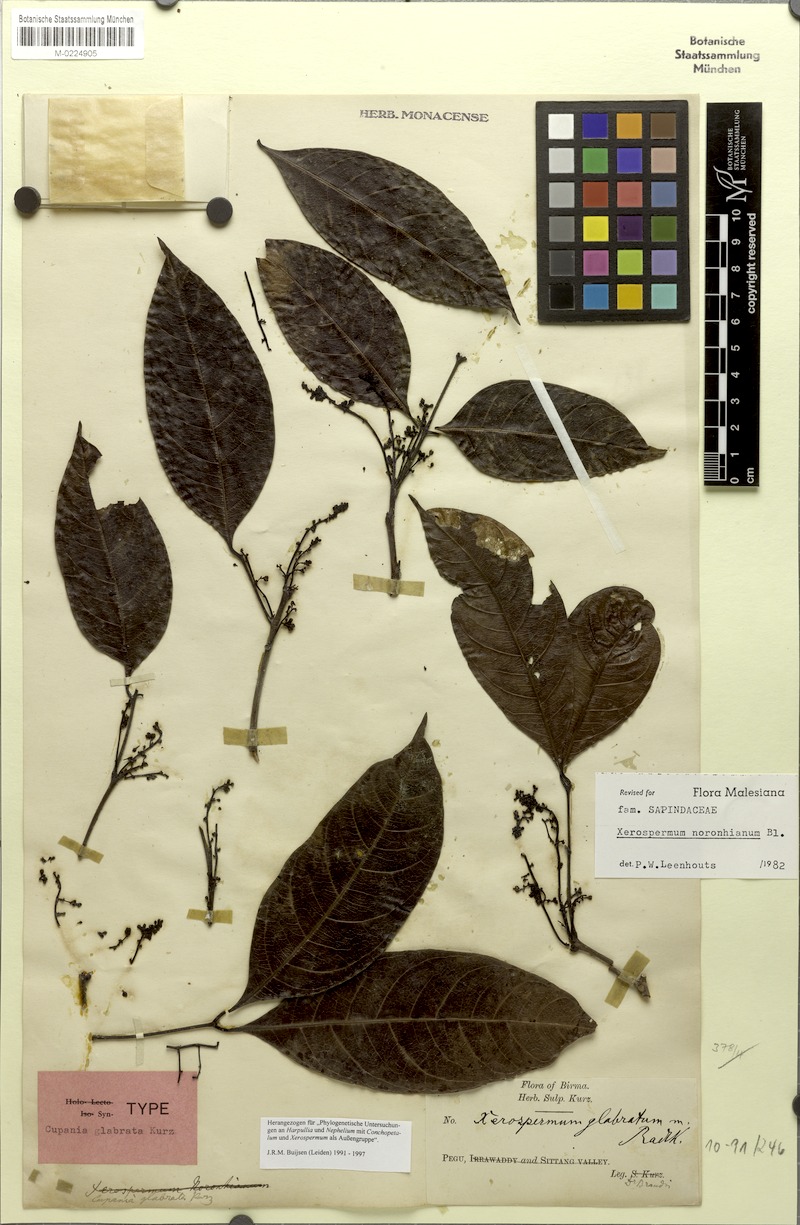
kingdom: Plantae
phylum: Tracheophyta
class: Magnoliopsida
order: Sapindales
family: Sapindaceae
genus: Xerospermum
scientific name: Xerospermum noronhianum
